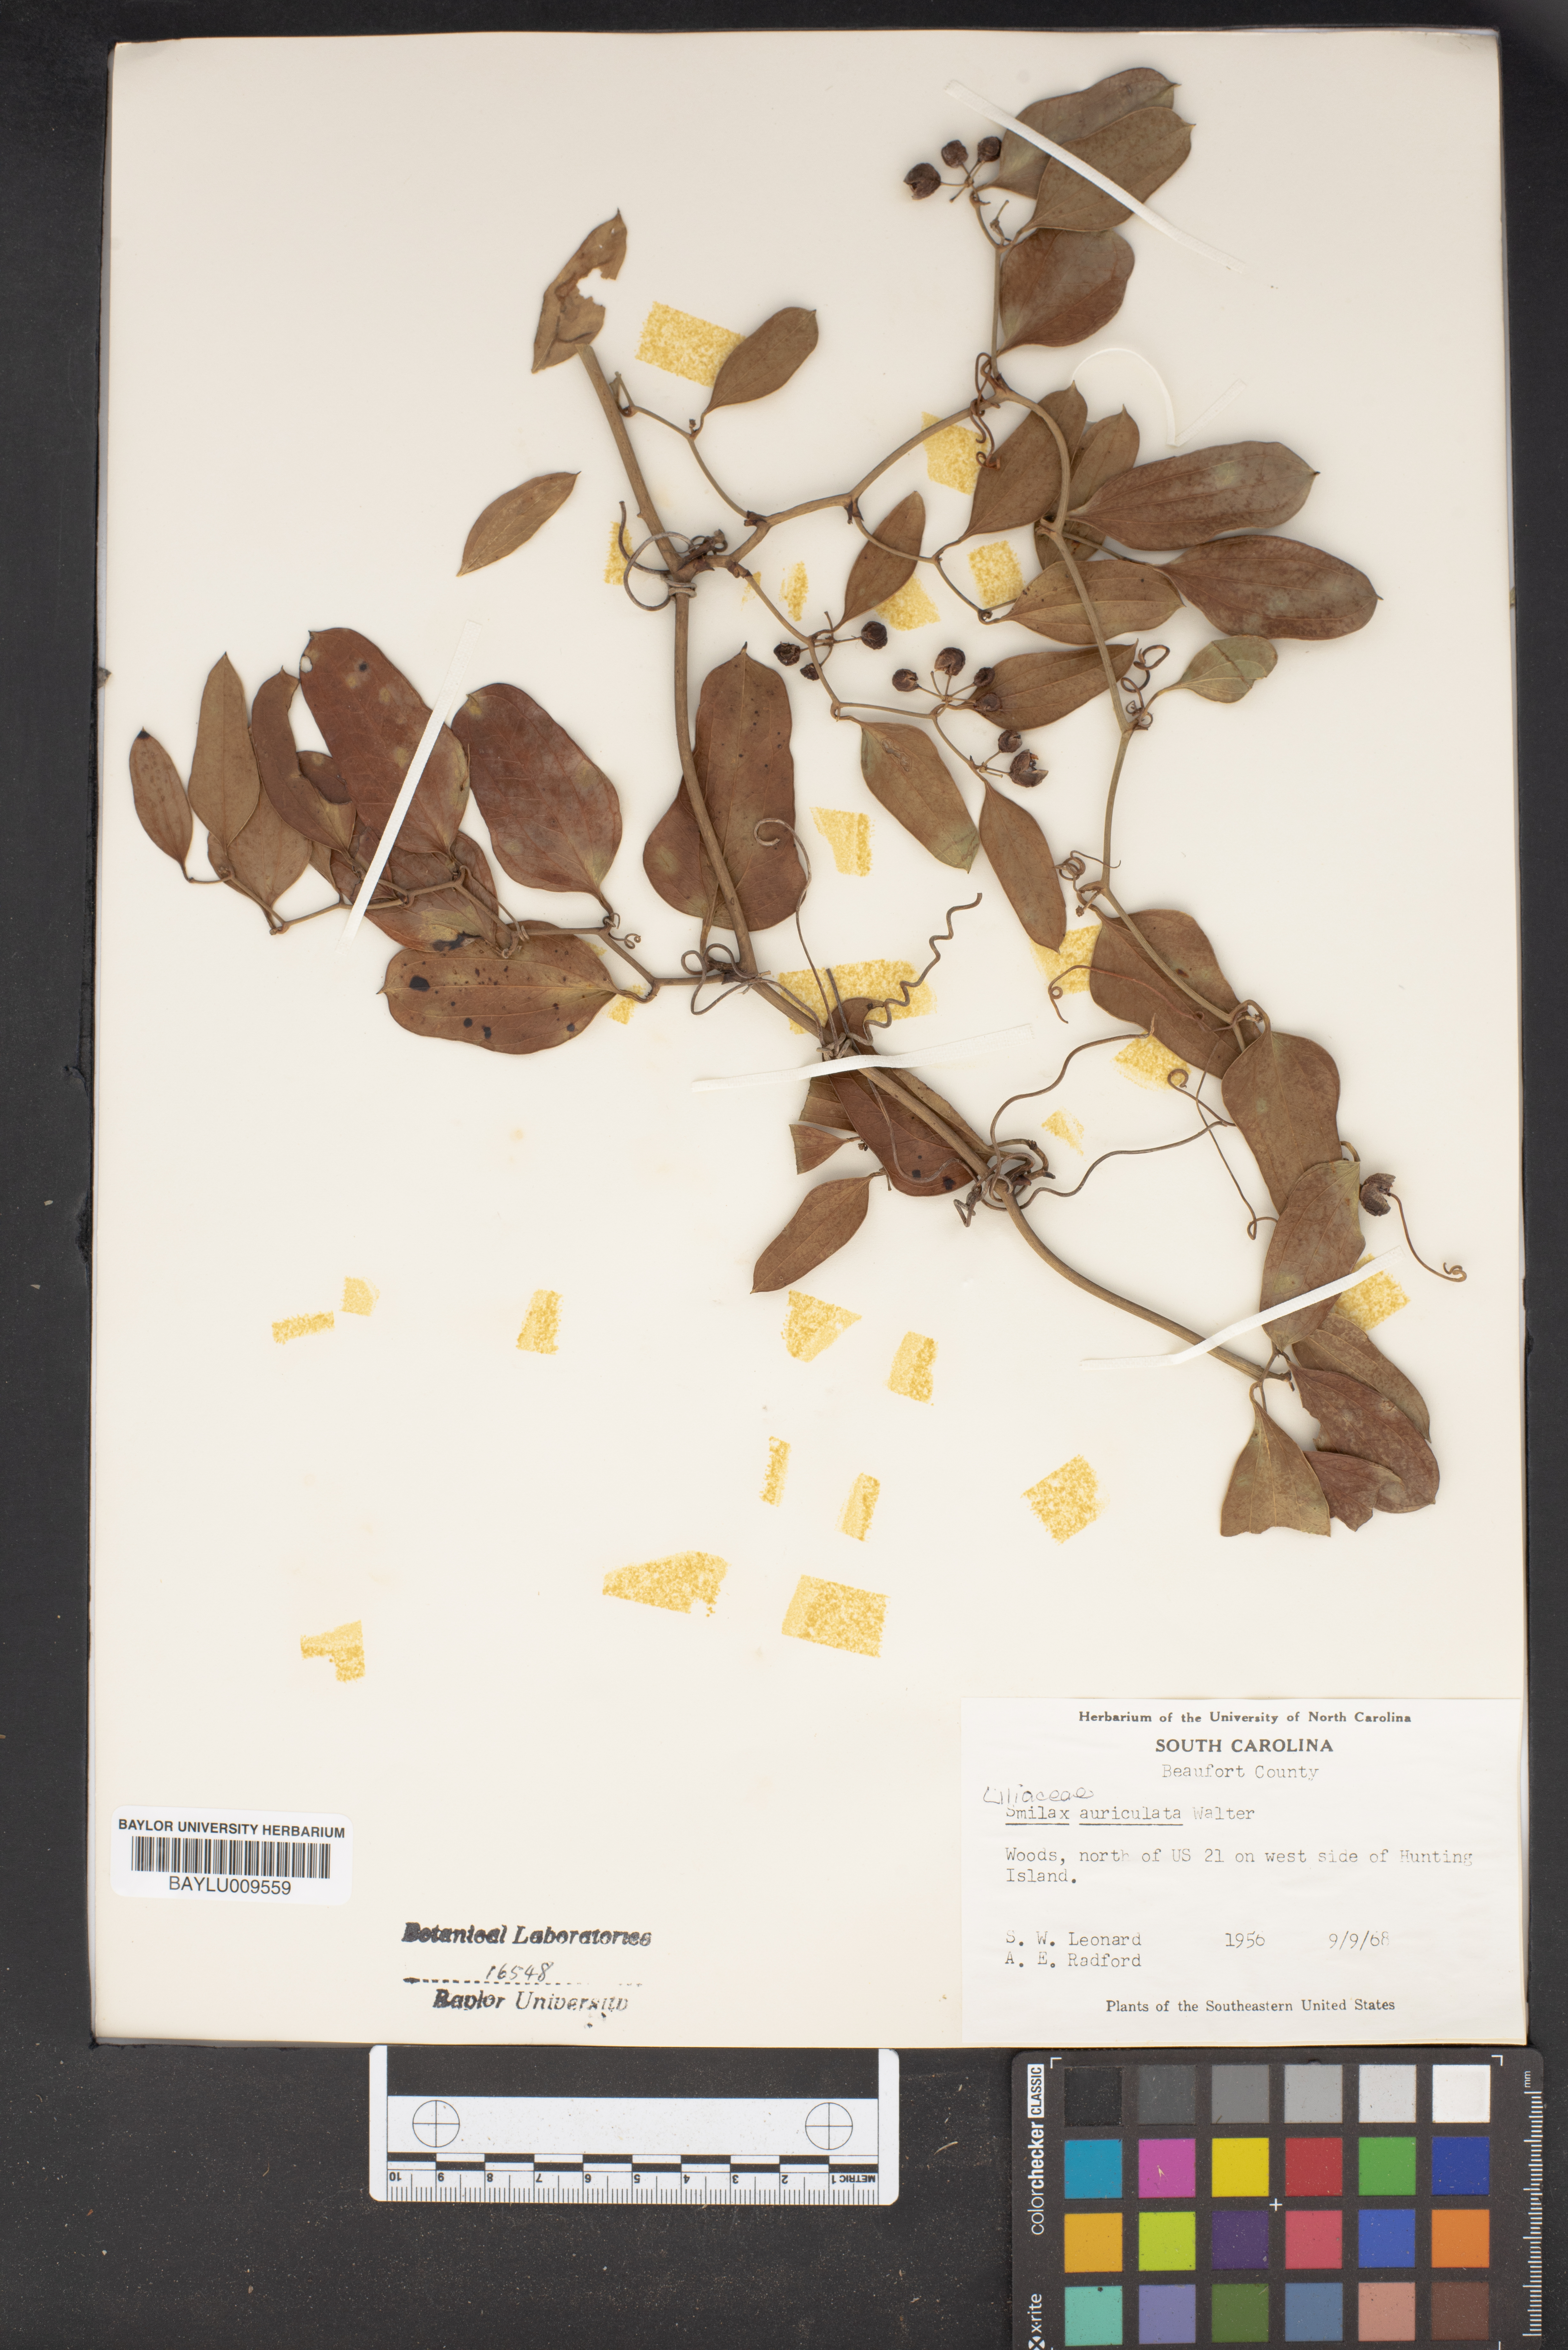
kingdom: Plantae
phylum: Tracheophyta
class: Liliopsida
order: Liliales
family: Smilacaceae
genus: Smilax
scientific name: Smilax auriculata
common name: Wild bamboo
